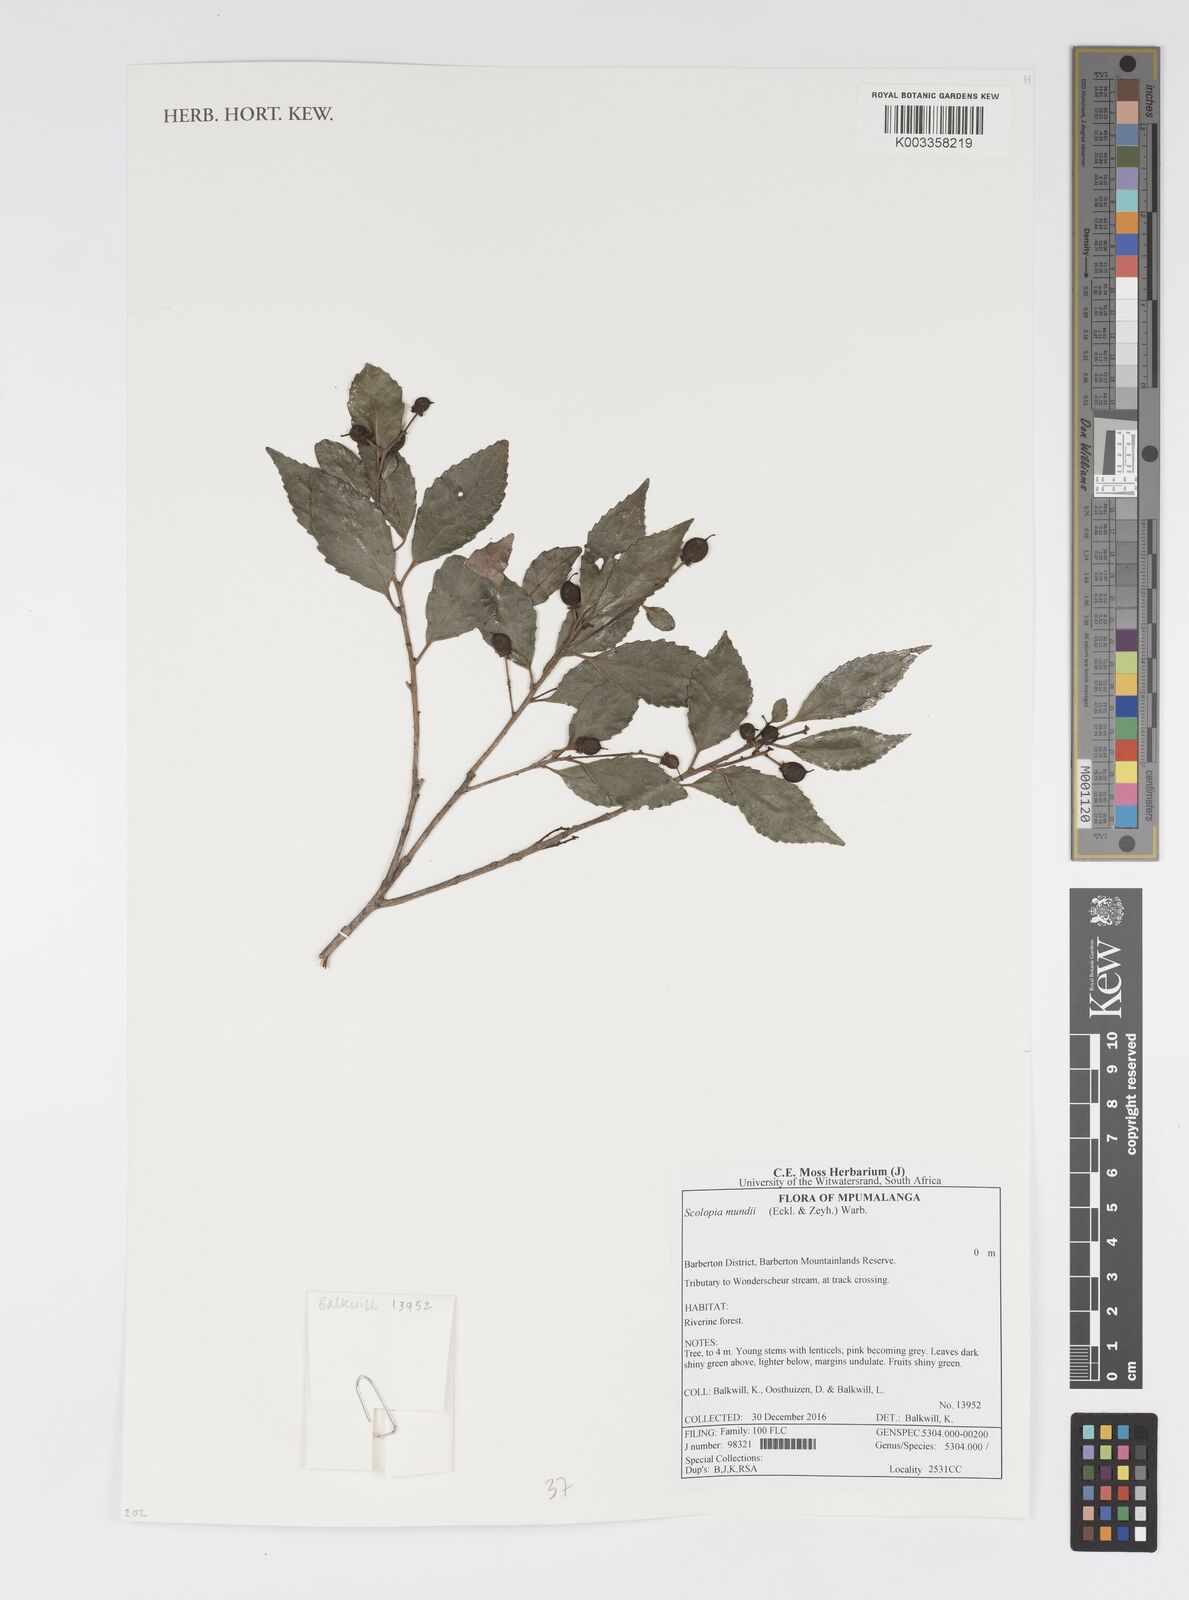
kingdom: Plantae
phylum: Tracheophyta
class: Magnoliopsida
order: Malpighiales
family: Salicaceae
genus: Scolopia
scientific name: Scolopia mundii
